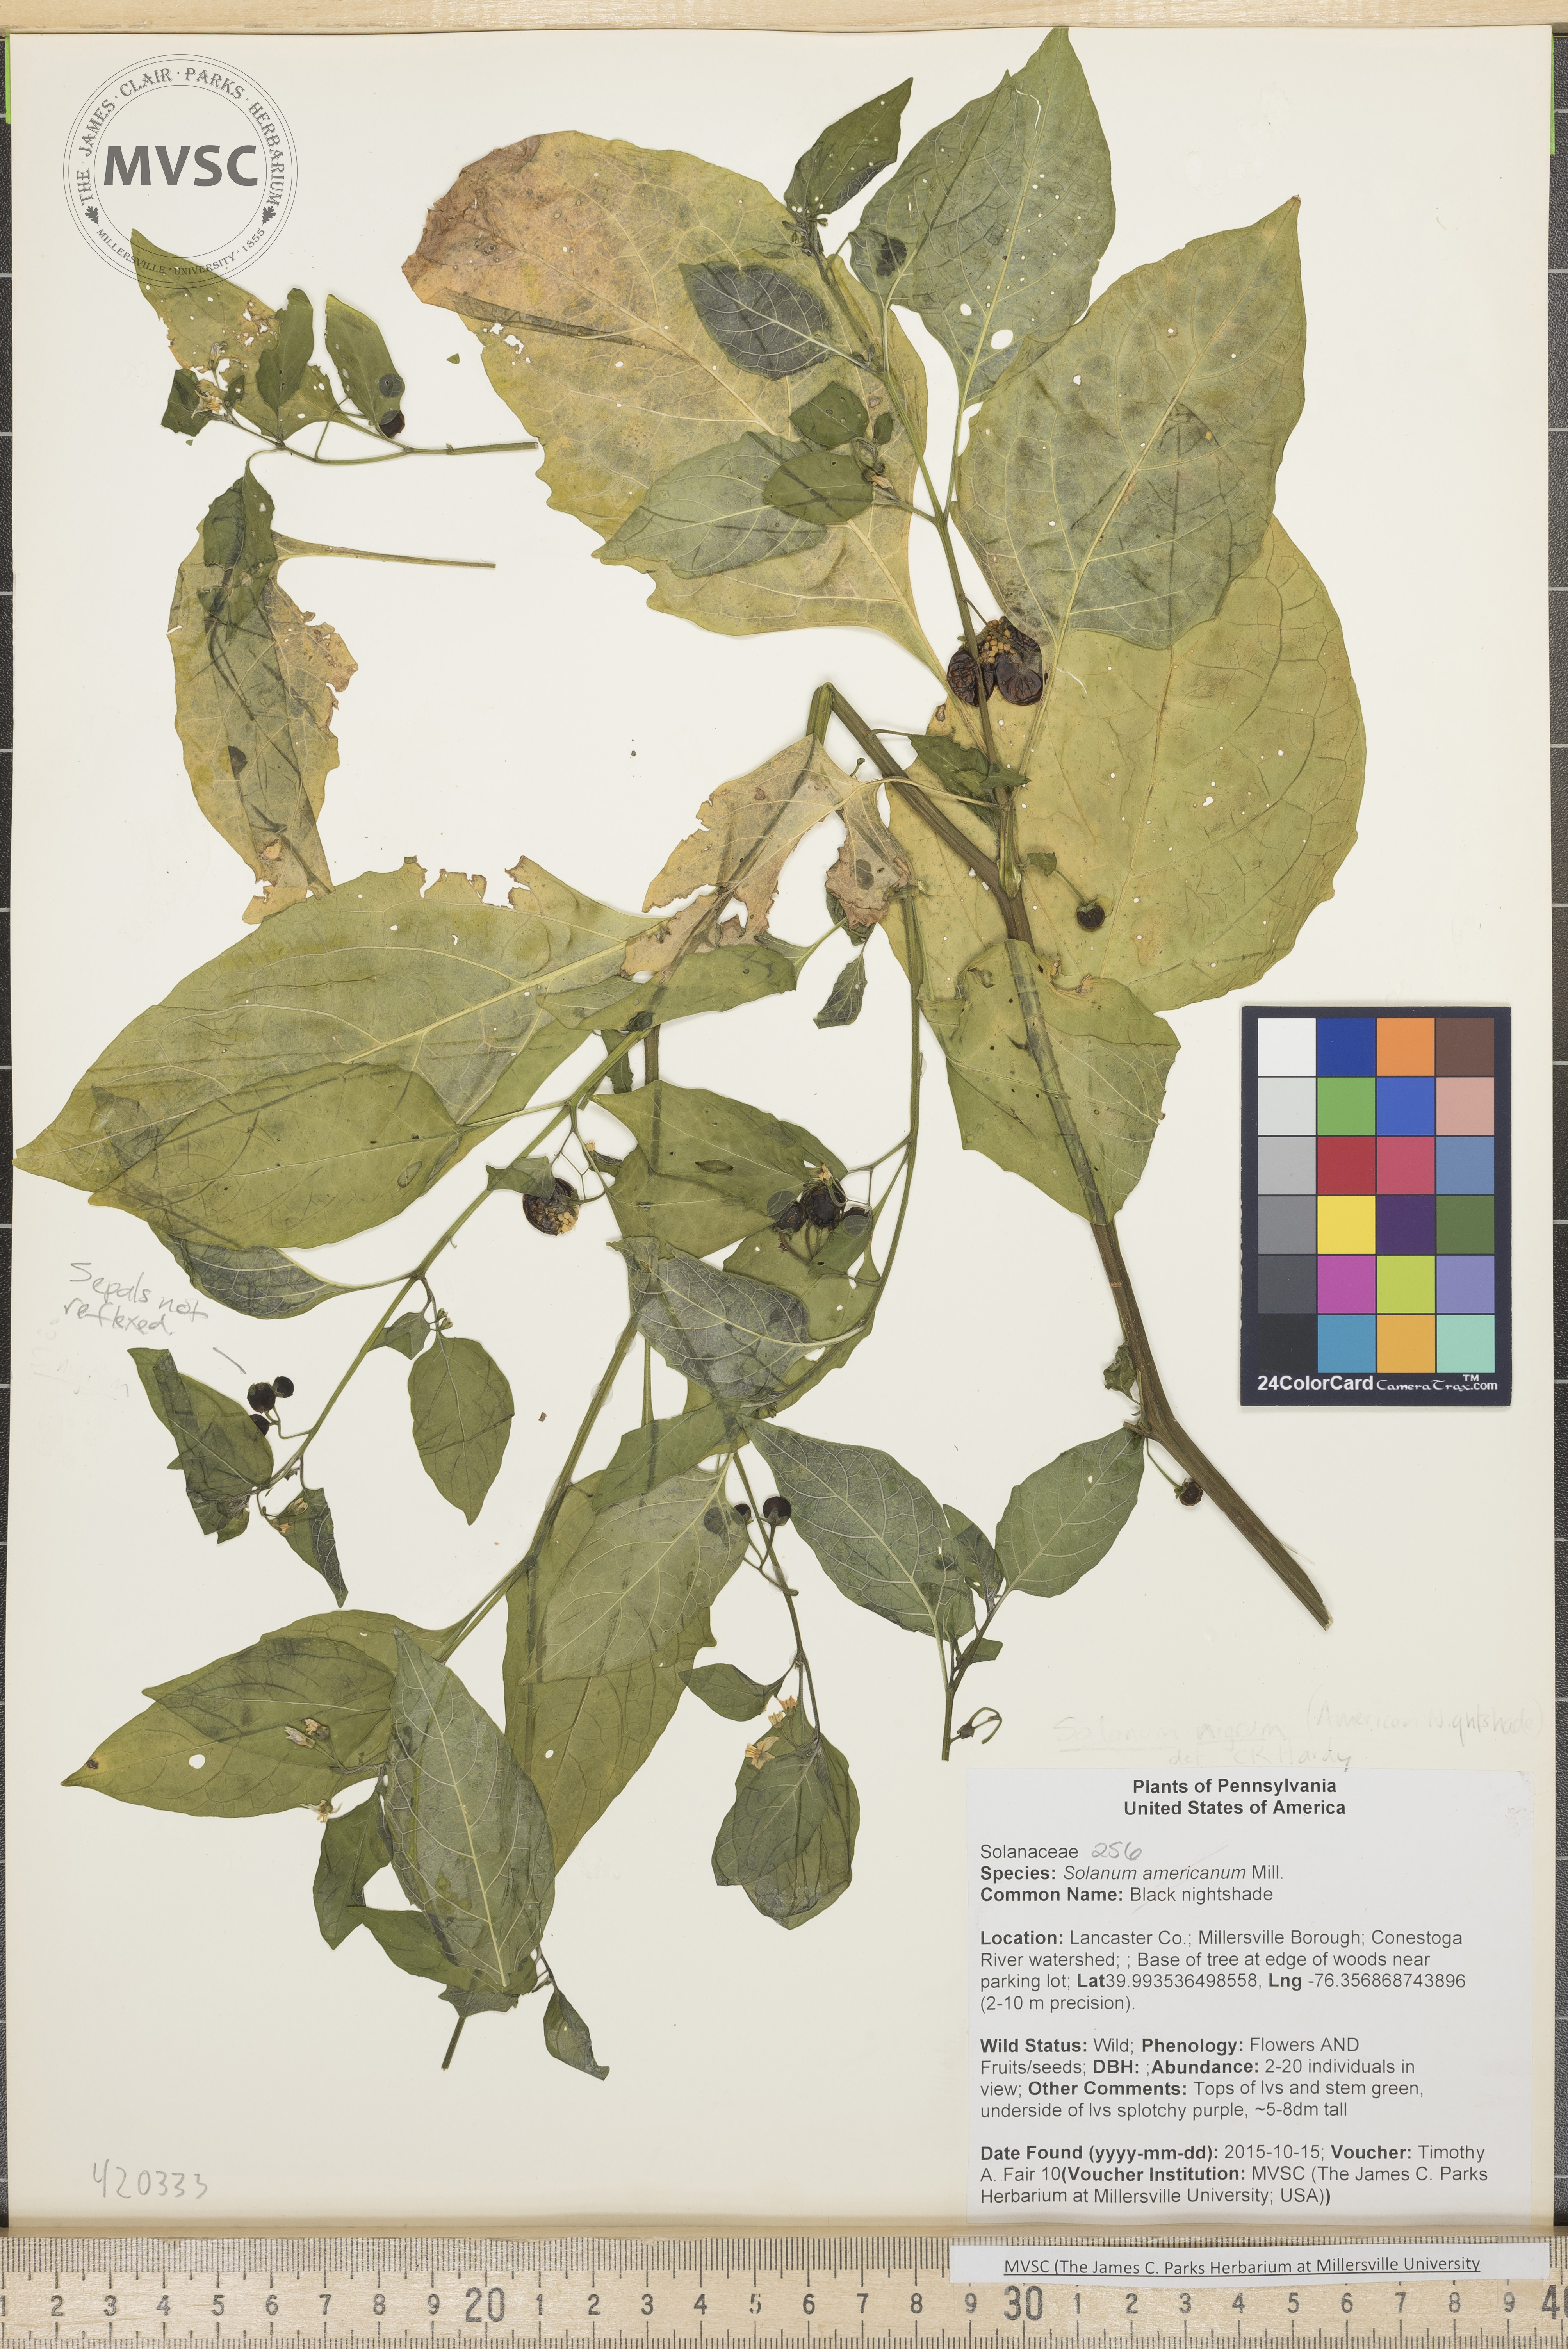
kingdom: Plantae
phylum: Tracheophyta
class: Magnoliopsida
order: Solanales
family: Solanaceae
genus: Solanum
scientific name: Solanum americanum
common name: Black nightshade
